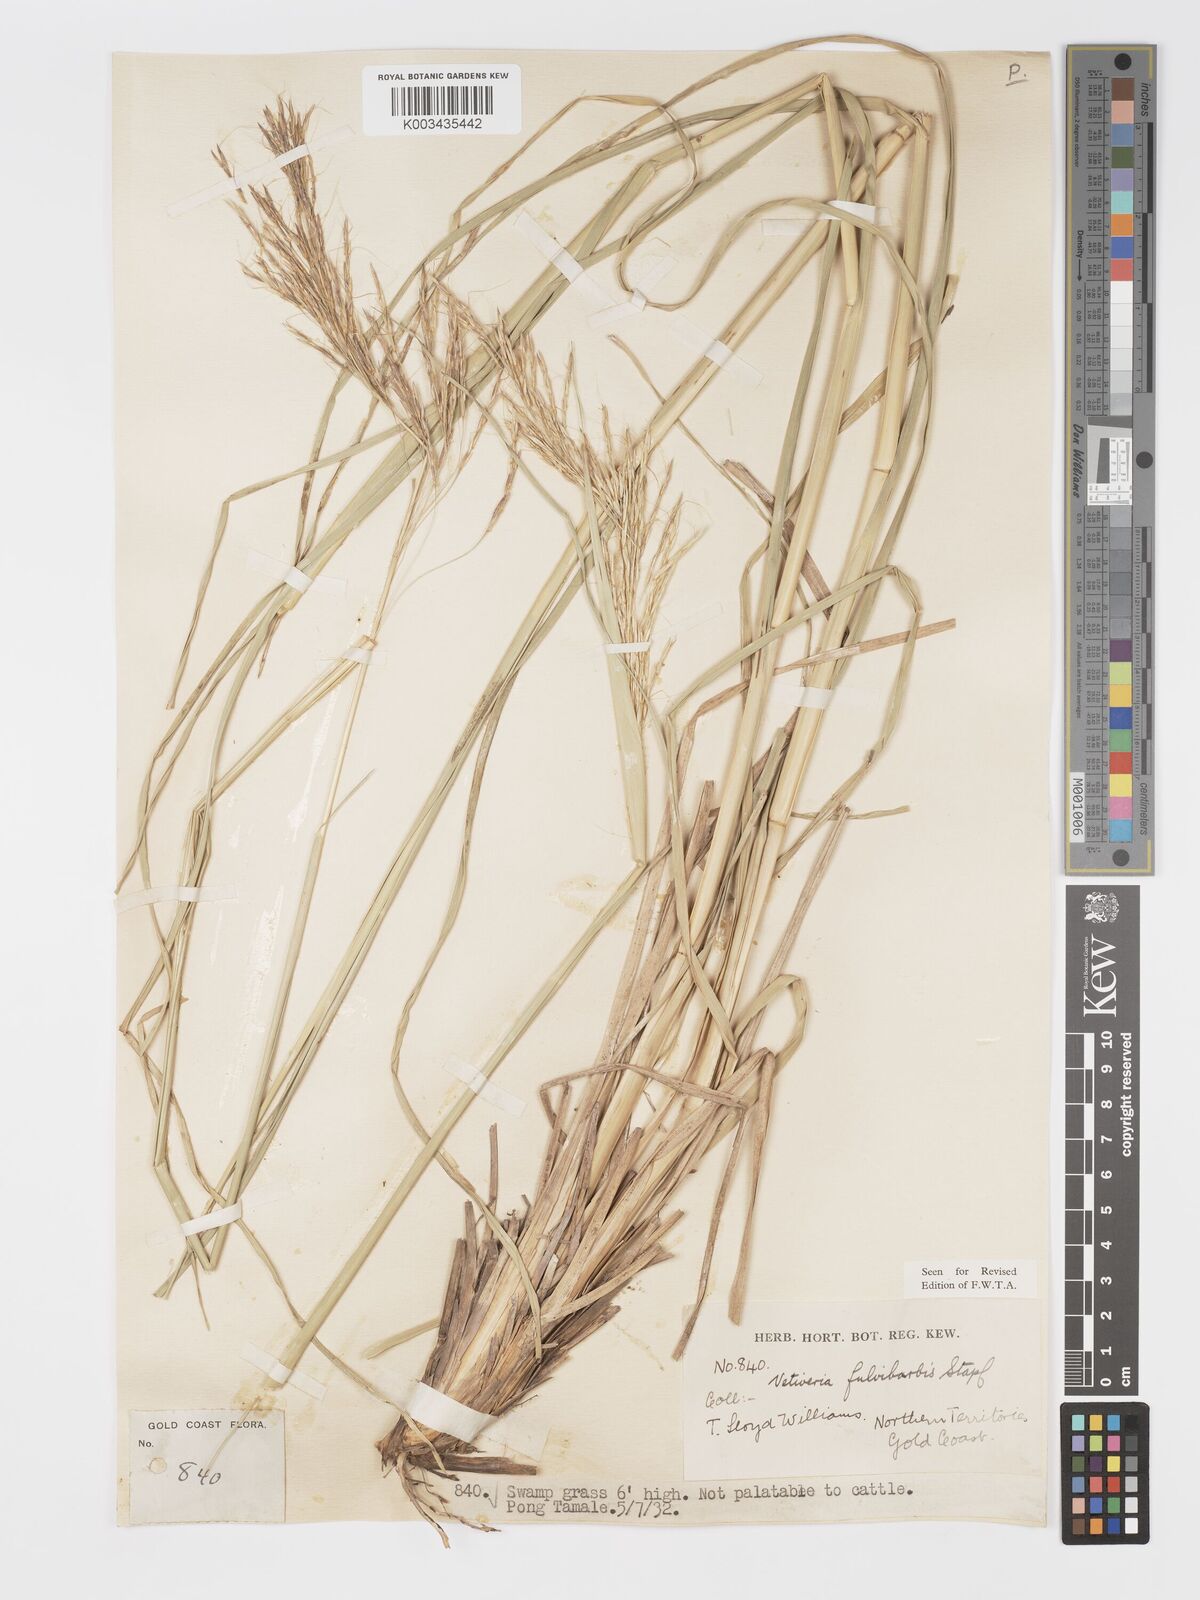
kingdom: Plantae
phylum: Tracheophyta
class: Liliopsida
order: Poales
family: Poaceae
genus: Chrysopogon
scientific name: Chrysopogon fulvibarbis
